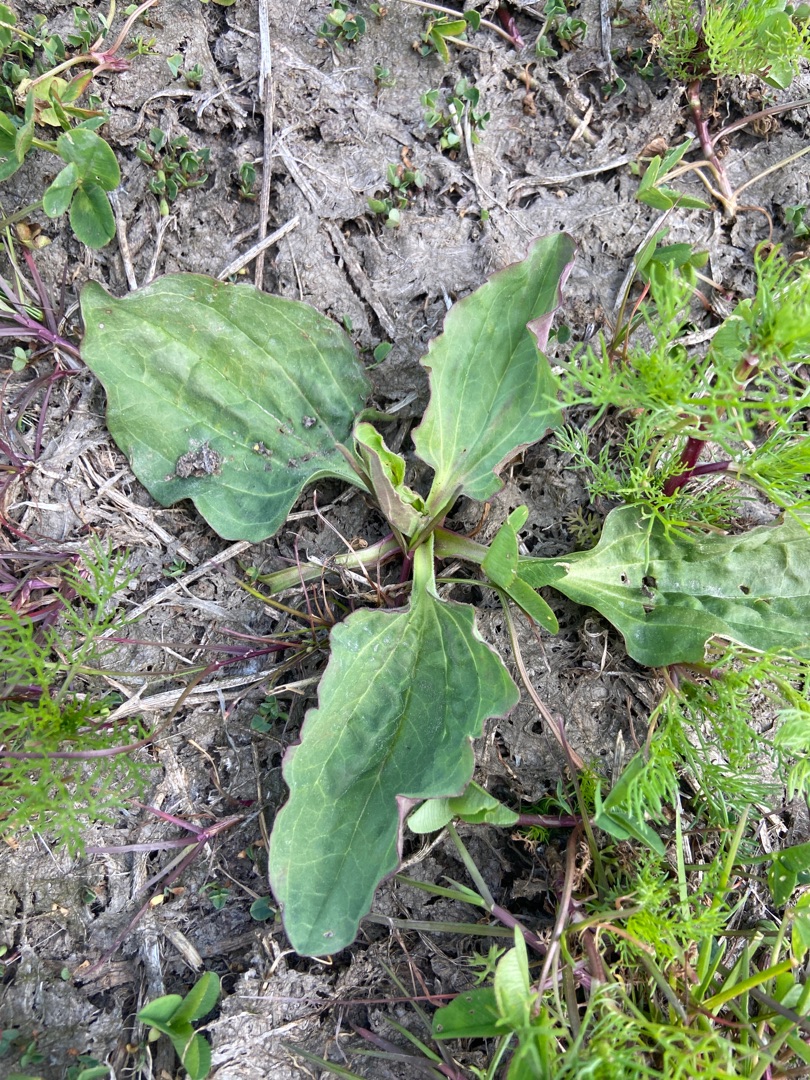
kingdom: Plantae
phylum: Tracheophyta
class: Magnoliopsida
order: Lamiales
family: Plantaginaceae
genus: Plantago
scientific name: Plantago major
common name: Glat vejbred
